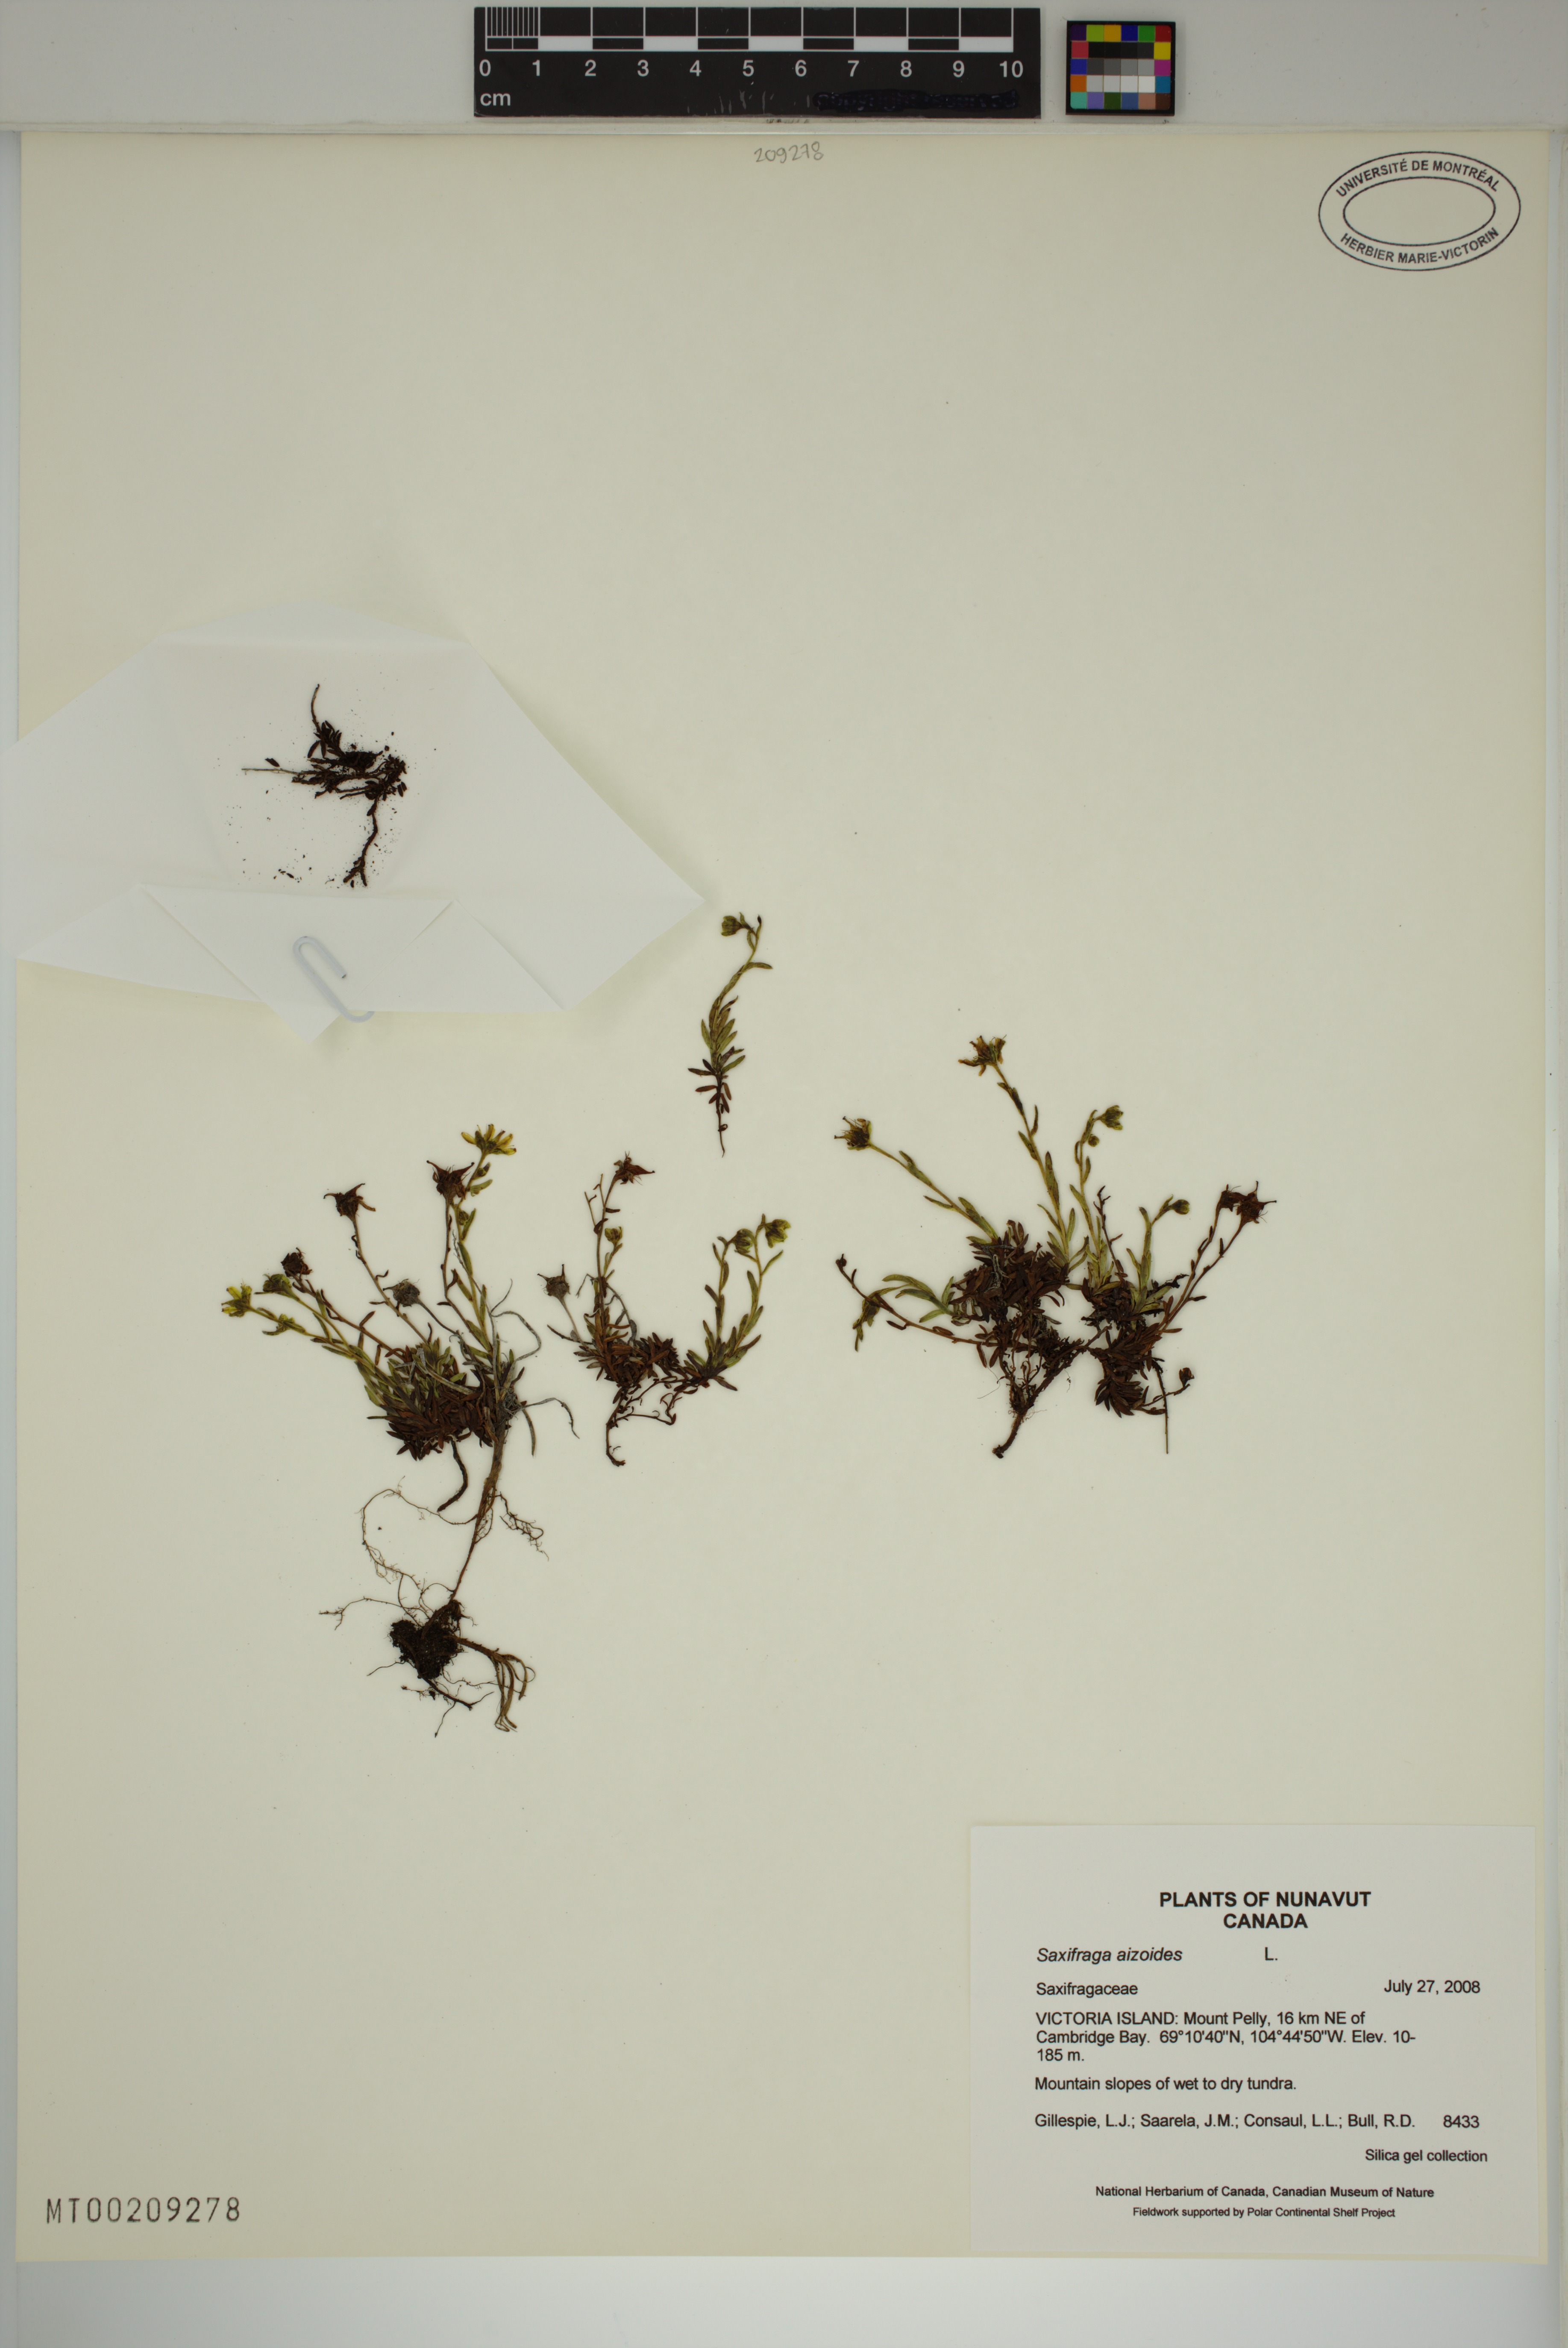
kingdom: Plantae
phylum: Tracheophyta
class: Magnoliopsida
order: Saxifragales
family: Saxifragaceae
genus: Saxifraga
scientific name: Saxifraga aizoides
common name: Yellow mountain saxifrage
